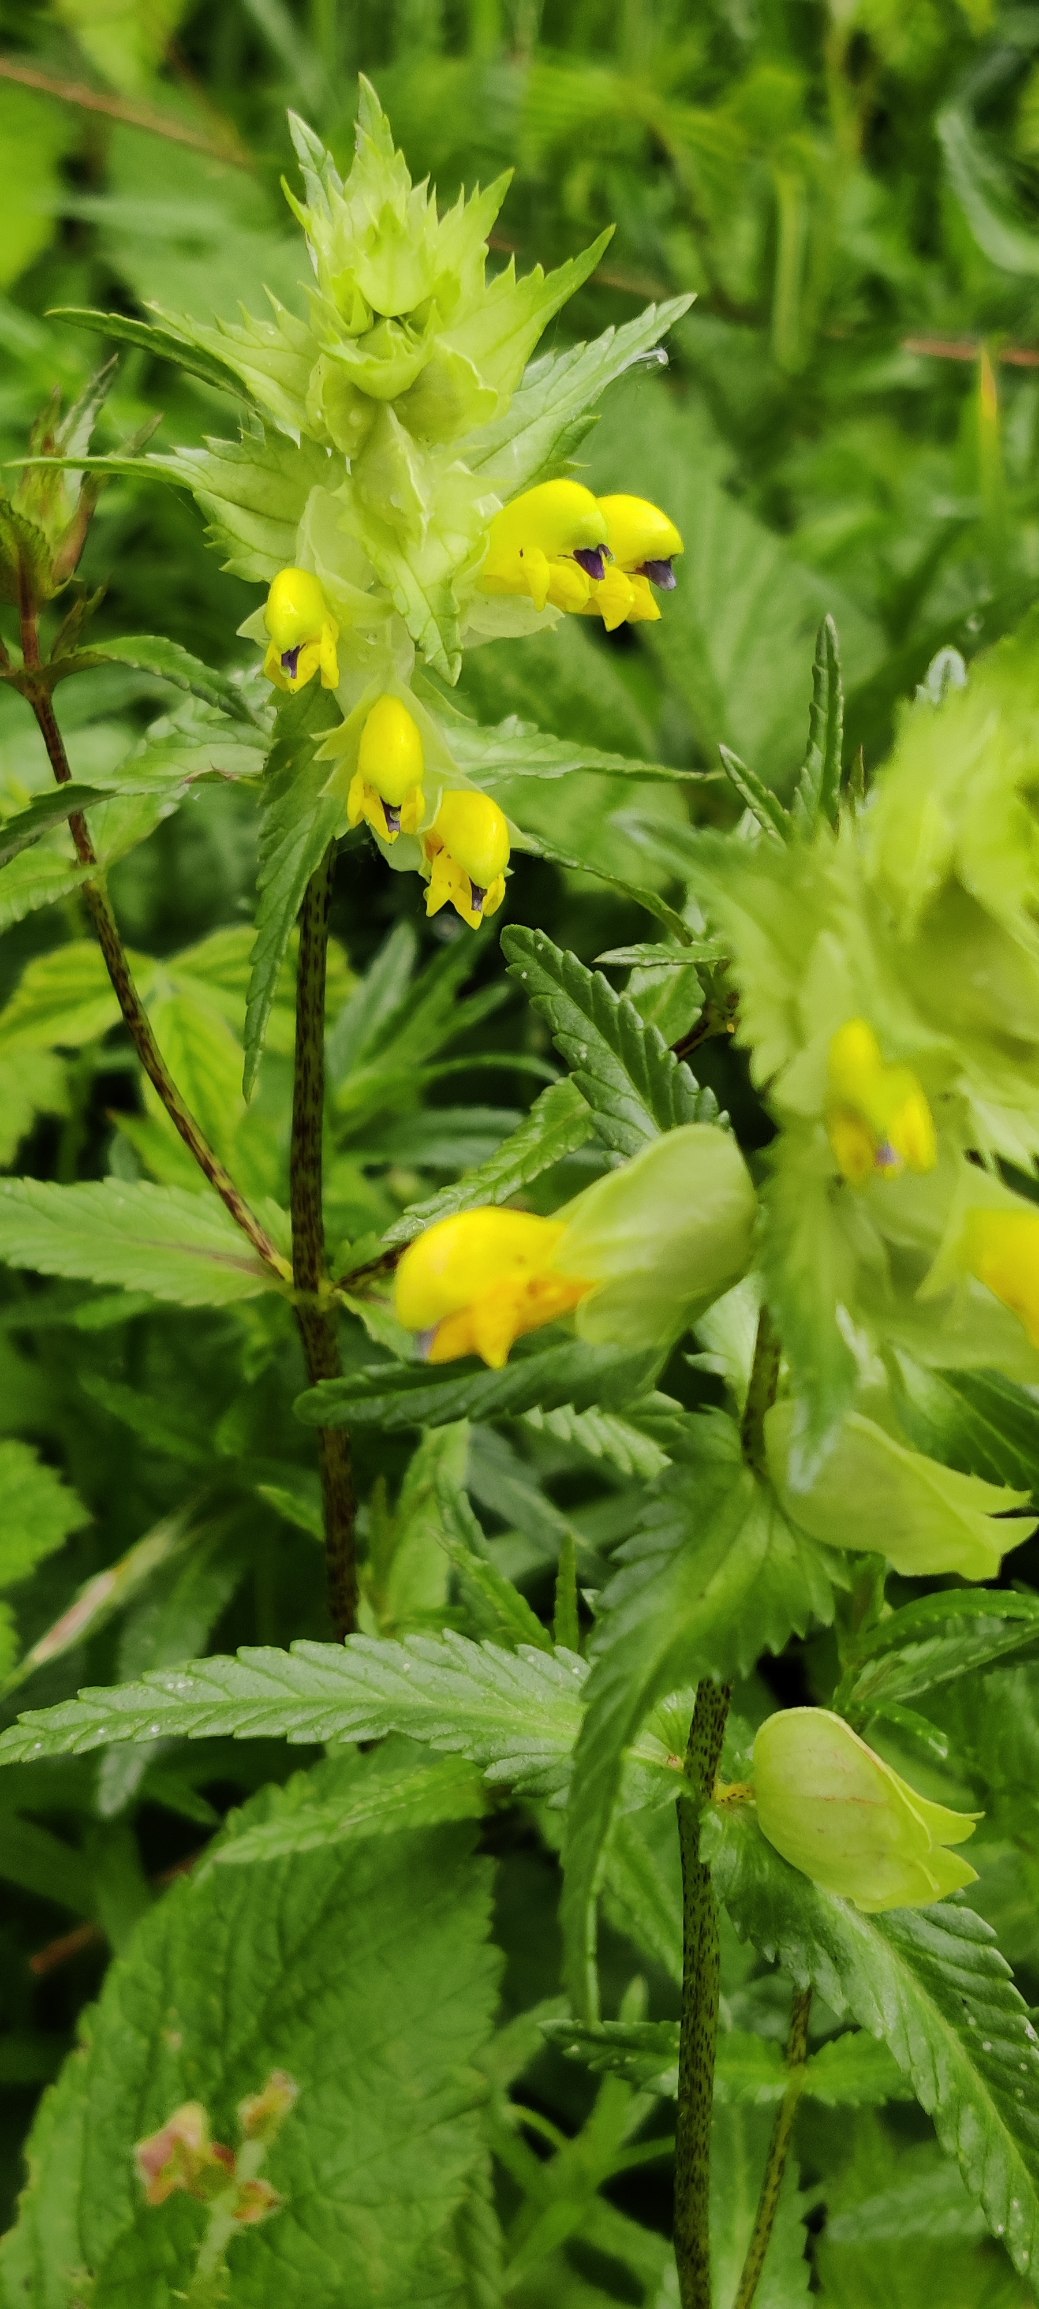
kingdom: Plantae
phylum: Tracheophyta
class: Magnoliopsida
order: Lamiales
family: Orobanchaceae
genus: Rhinanthus
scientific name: Rhinanthus
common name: Stor skjaller
